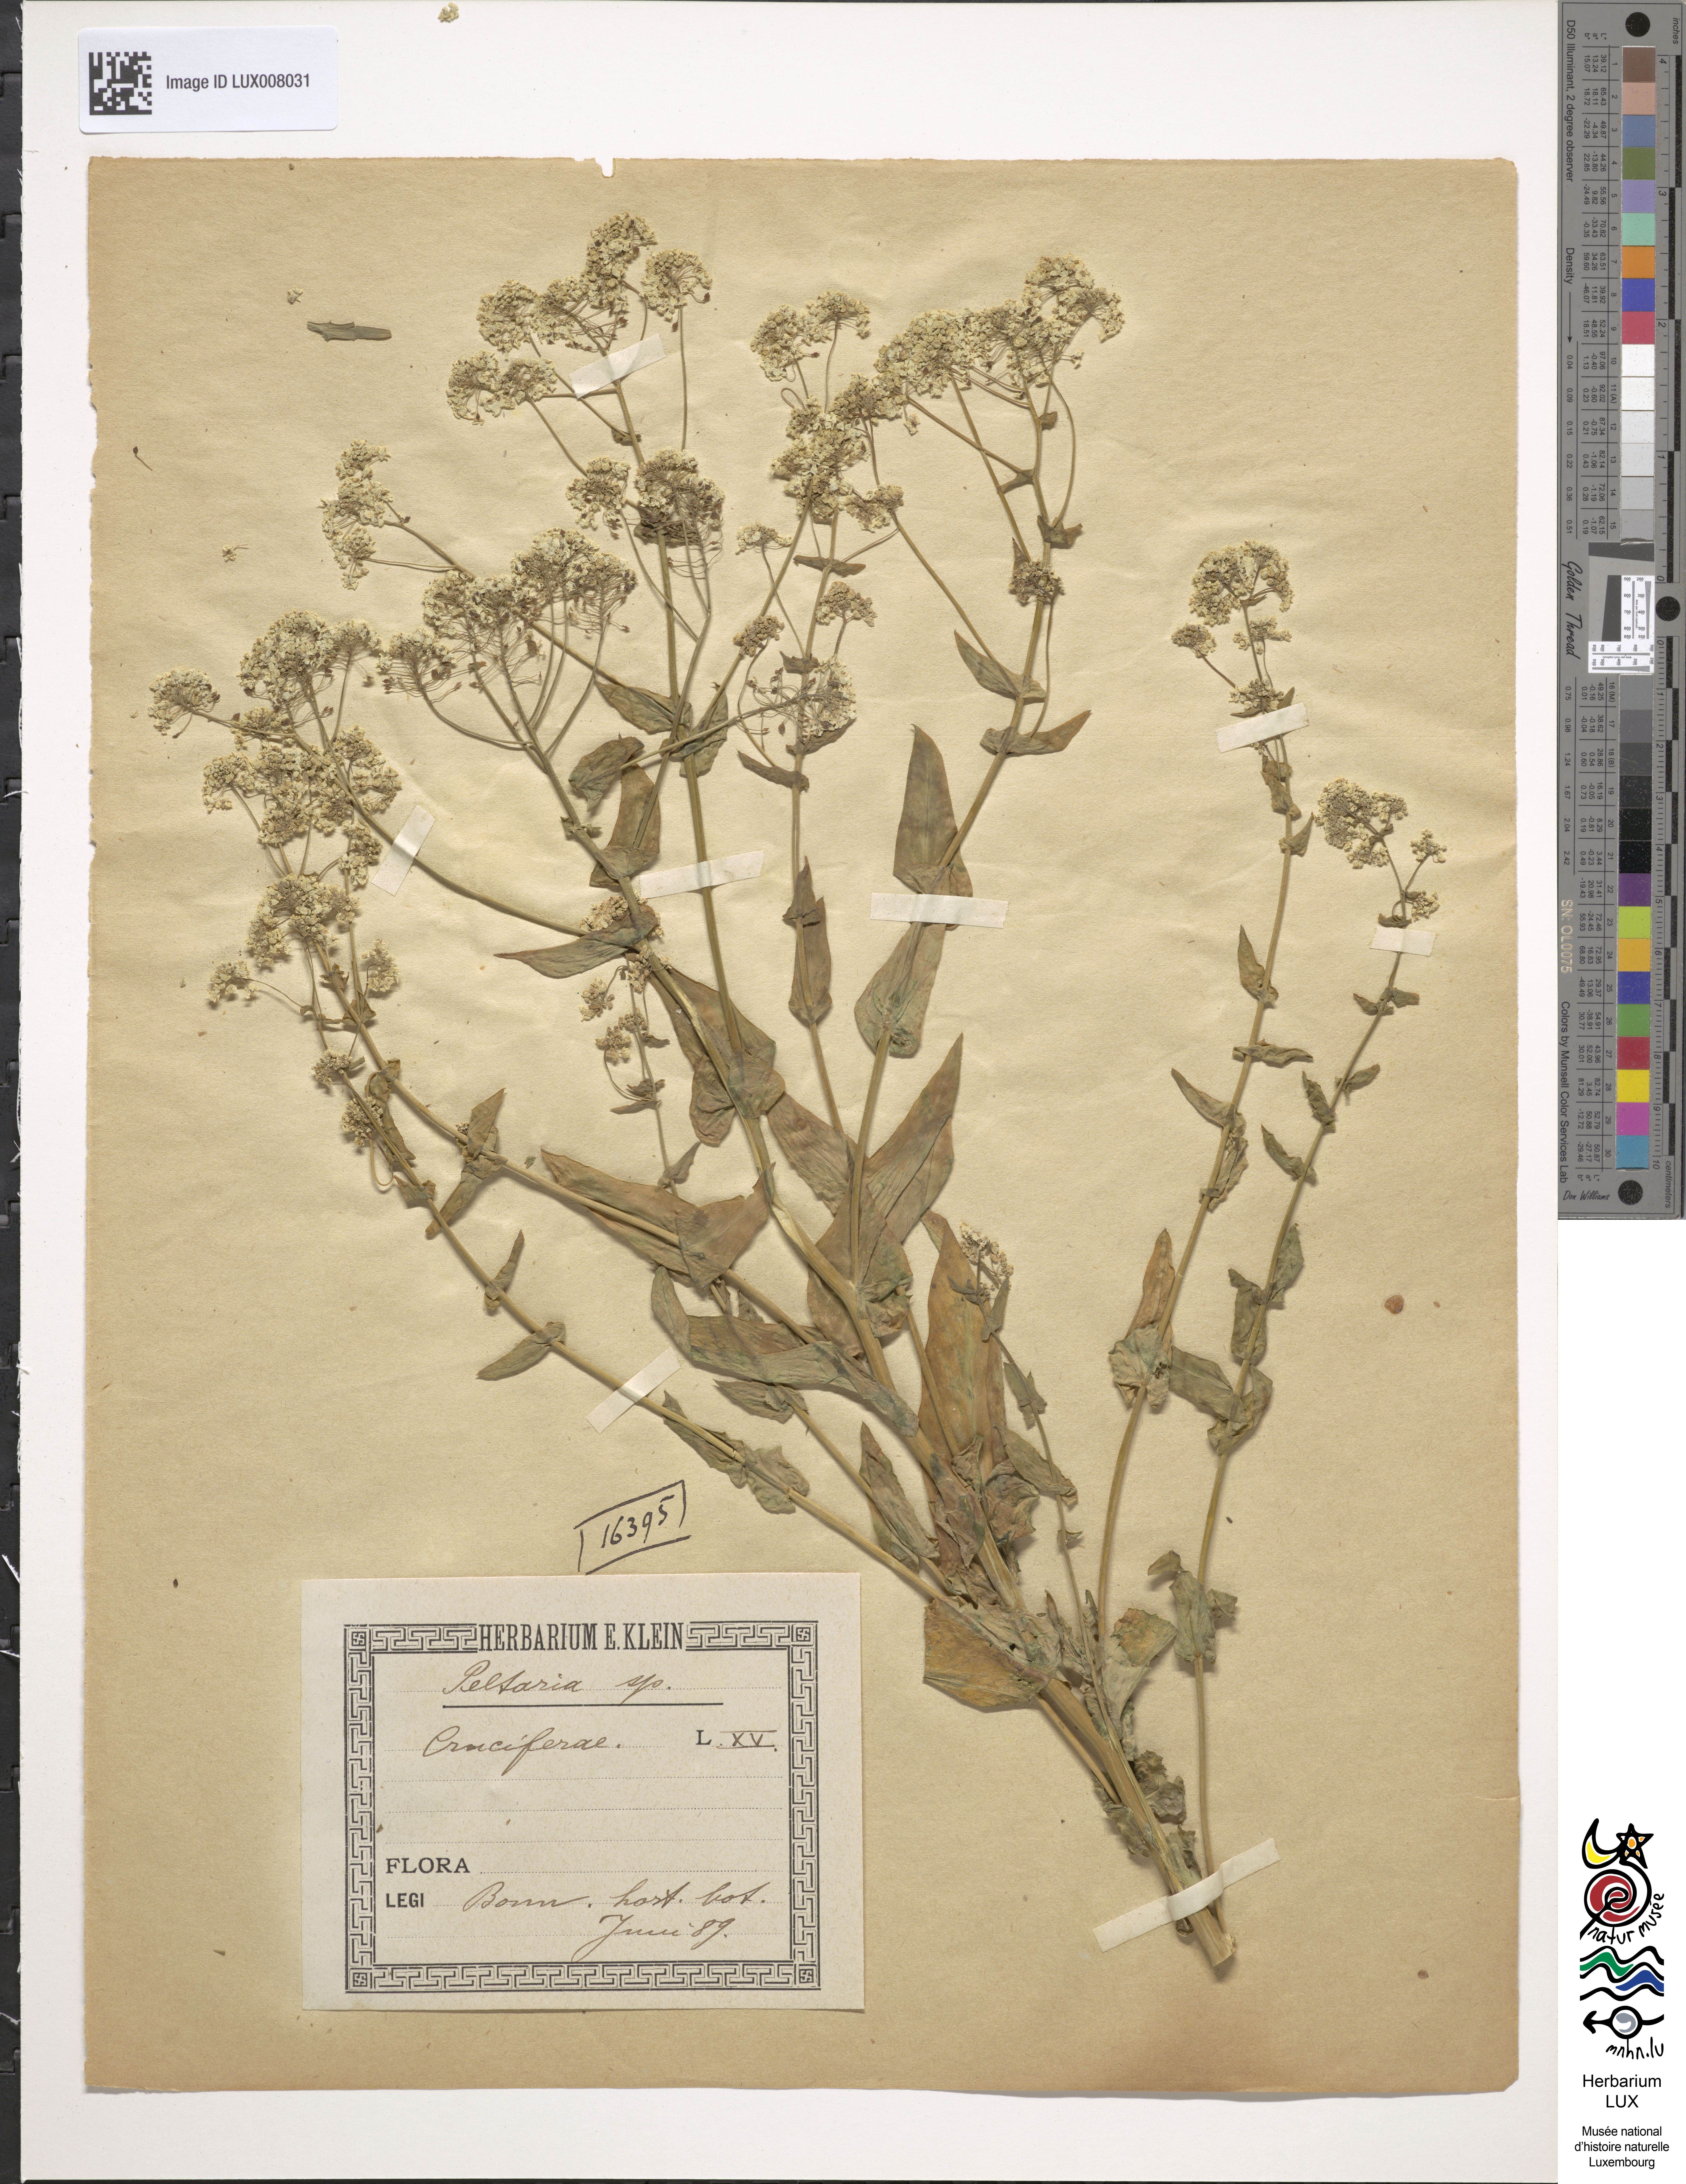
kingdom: Plantae
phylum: Tracheophyta
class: Magnoliopsida
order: Brassicales
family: Brassicaceae
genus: Peltaria
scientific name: Peltaria alliacea
